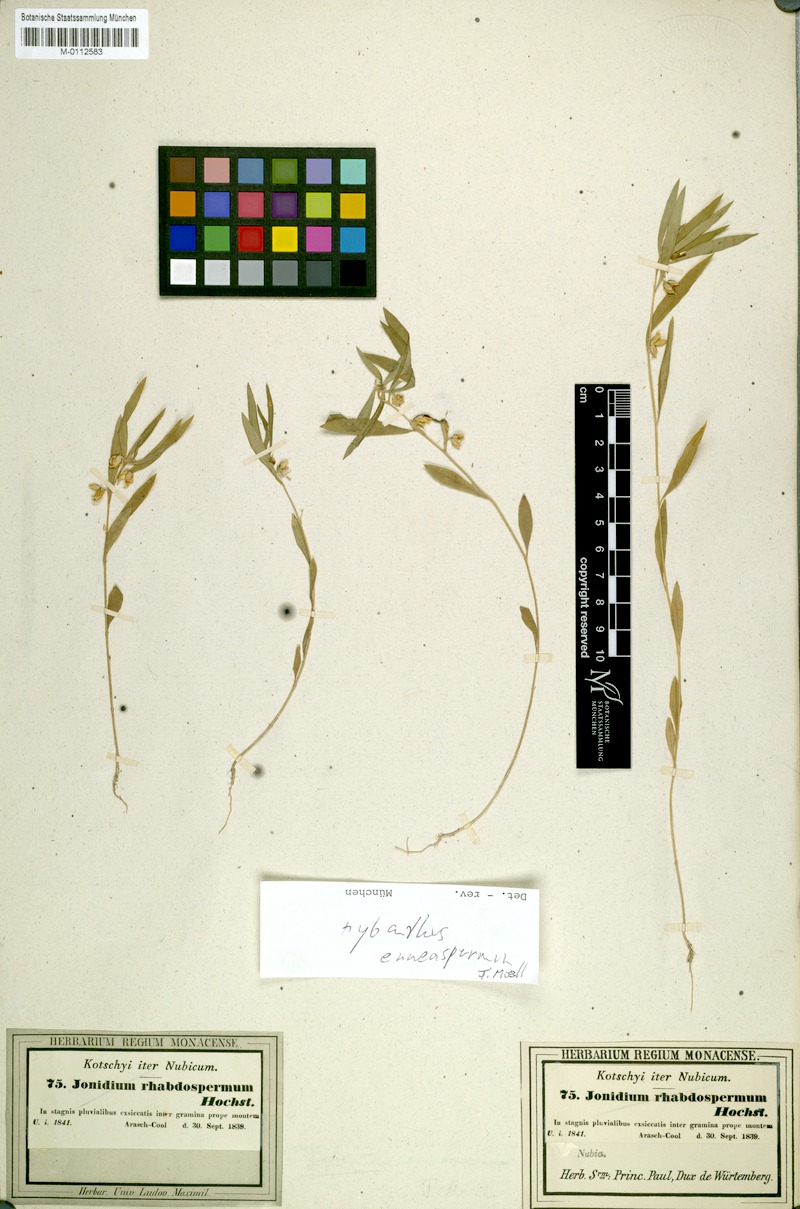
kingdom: Plantae
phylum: Tracheophyta
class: Magnoliopsida
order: Malpighiales
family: Violaceae
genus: Pigea
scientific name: Pigea enneasperma
